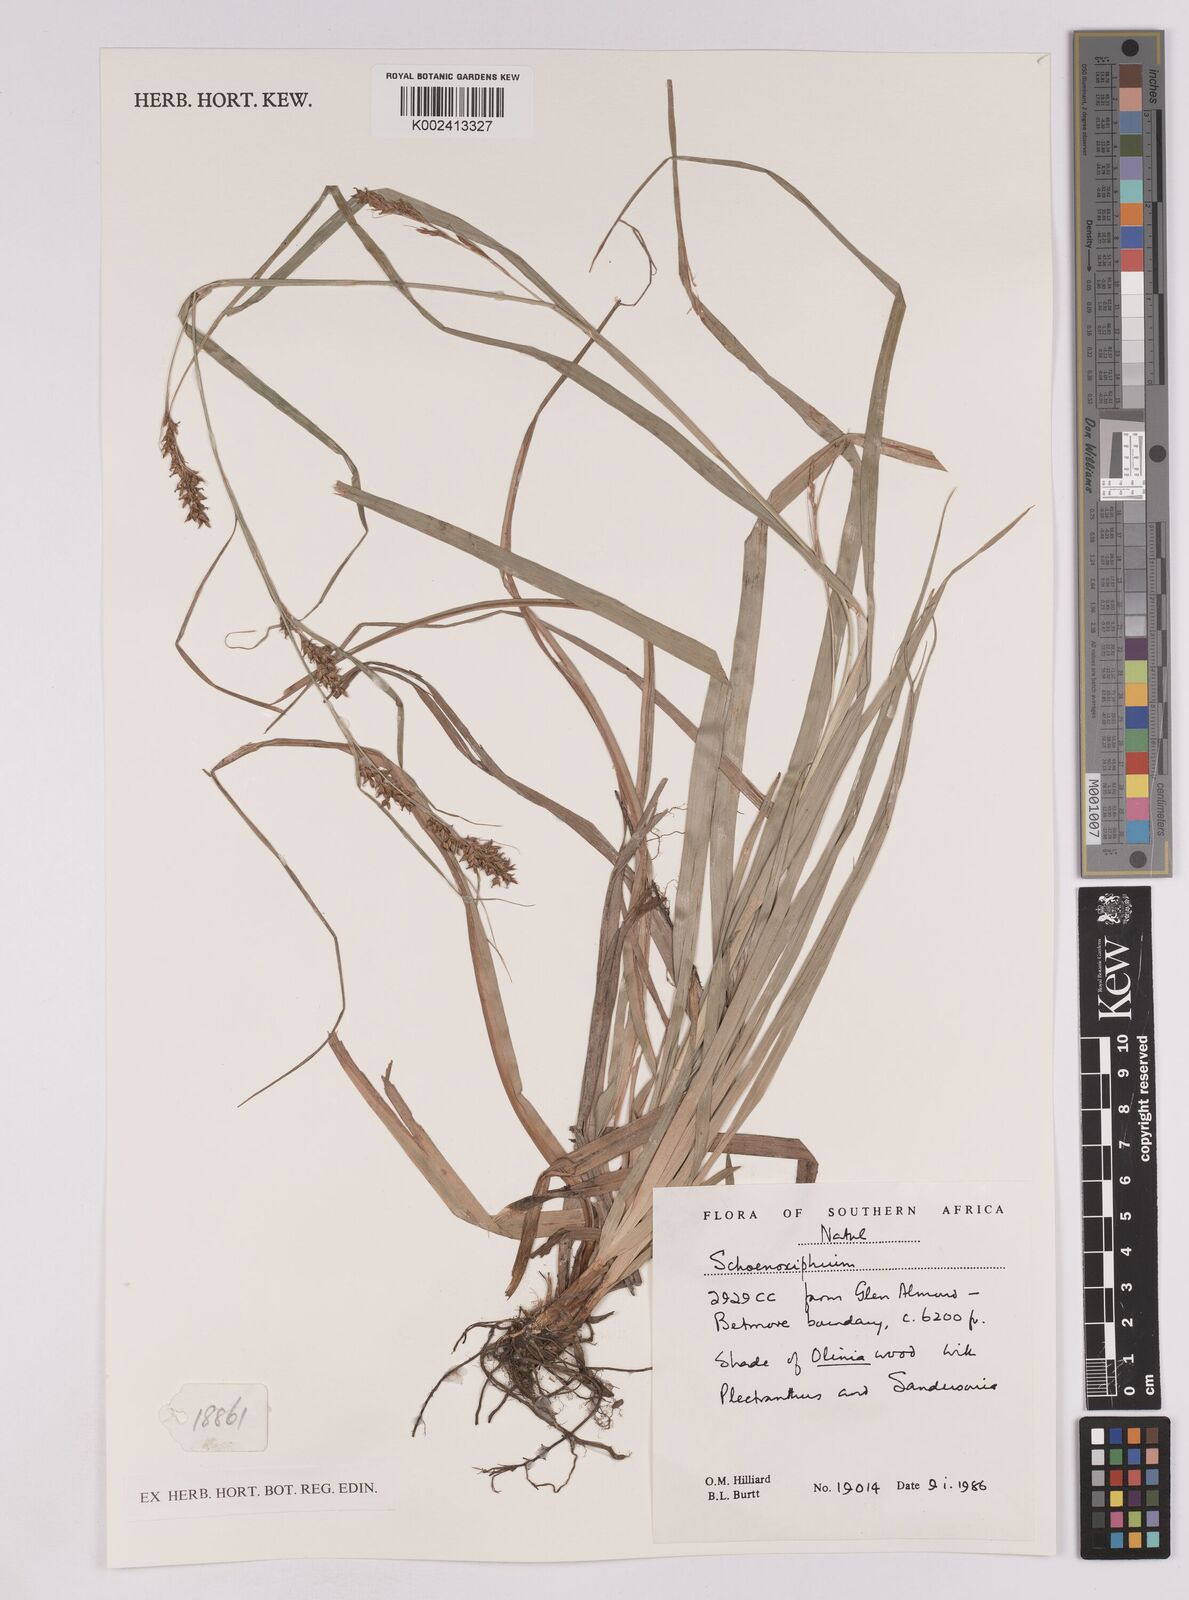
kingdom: Plantae
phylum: Tracheophyta
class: Liliopsida
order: Poales
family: Cyperaceae
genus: Carex
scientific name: Carex
